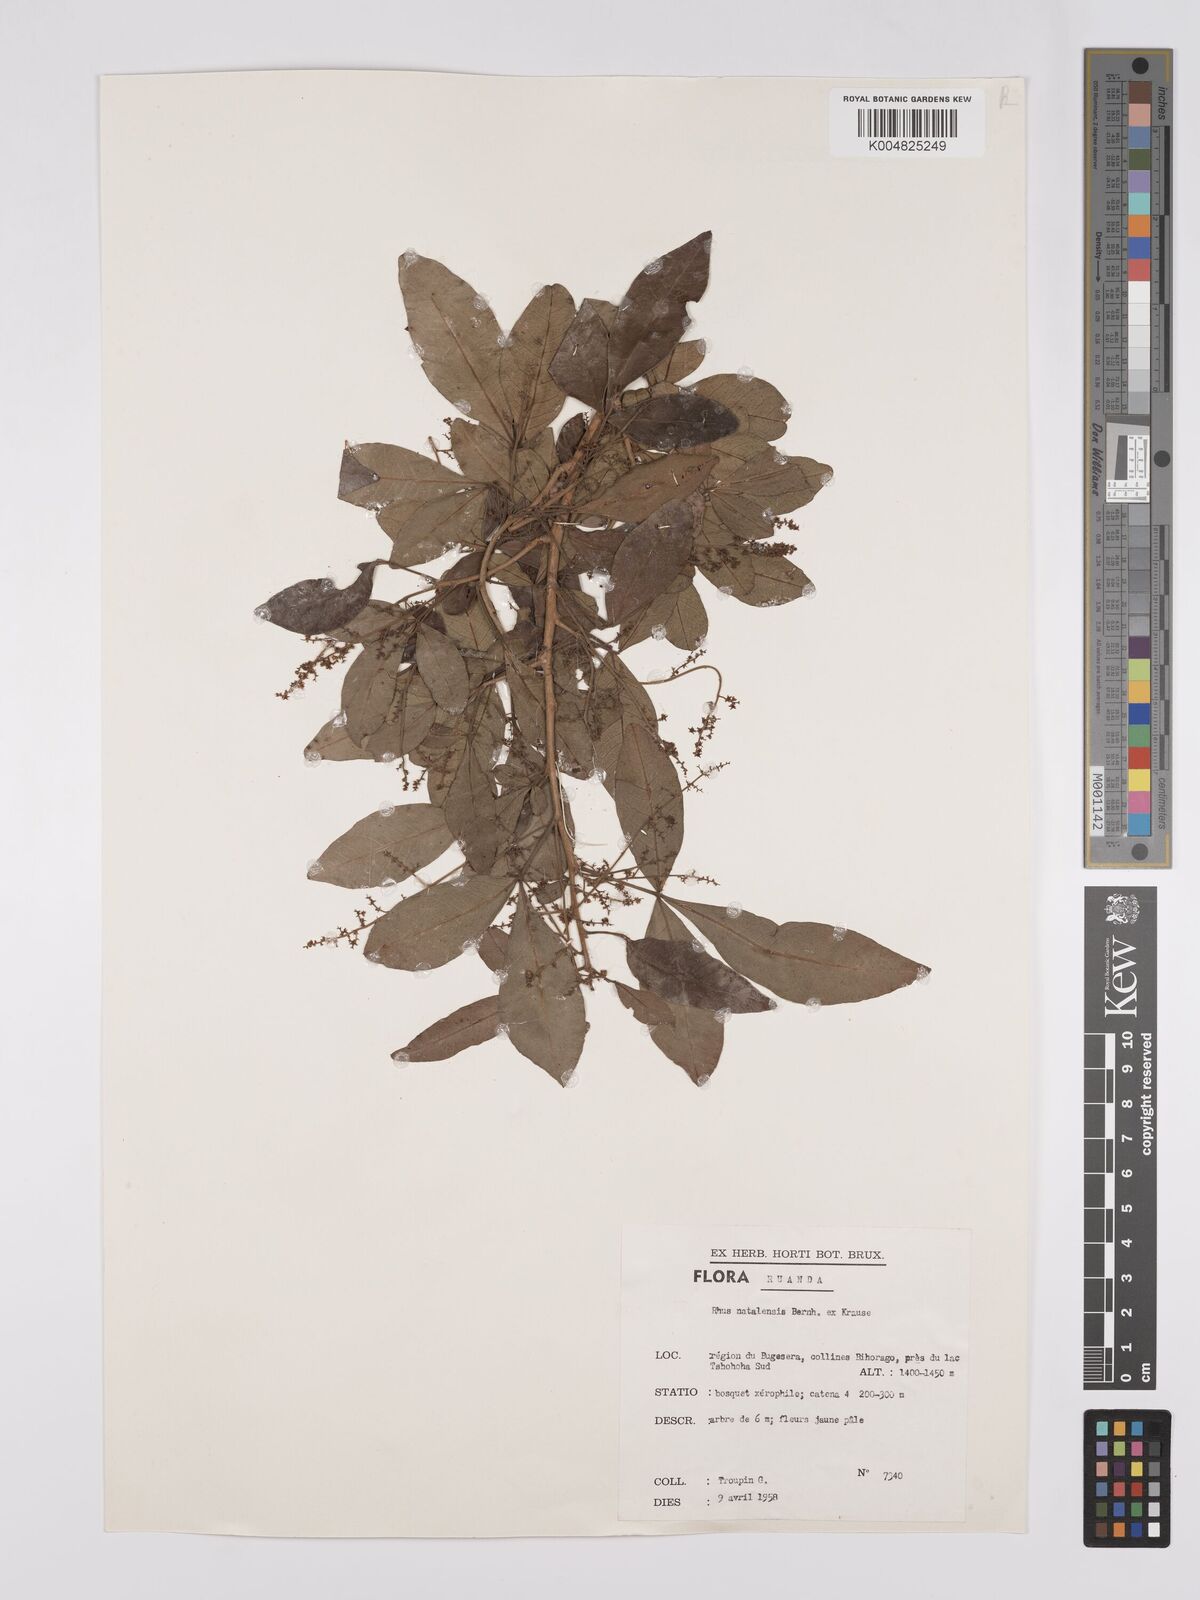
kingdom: Plantae
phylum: Tracheophyta
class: Magnoliopsida
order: Sapindales
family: Anacardiaceae
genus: Searsia
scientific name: Searsia natalensis
